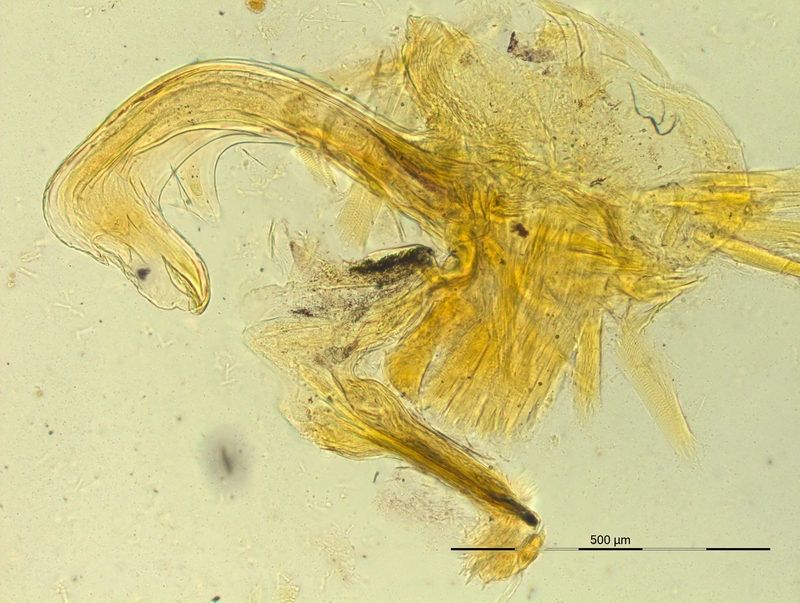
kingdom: Animalia
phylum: Arthropoda
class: Diplopoda
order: Chordeumatida
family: Craspedosomatidae
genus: Pyrgocyphosoma
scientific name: Pyrgocyphosoma serravallense
